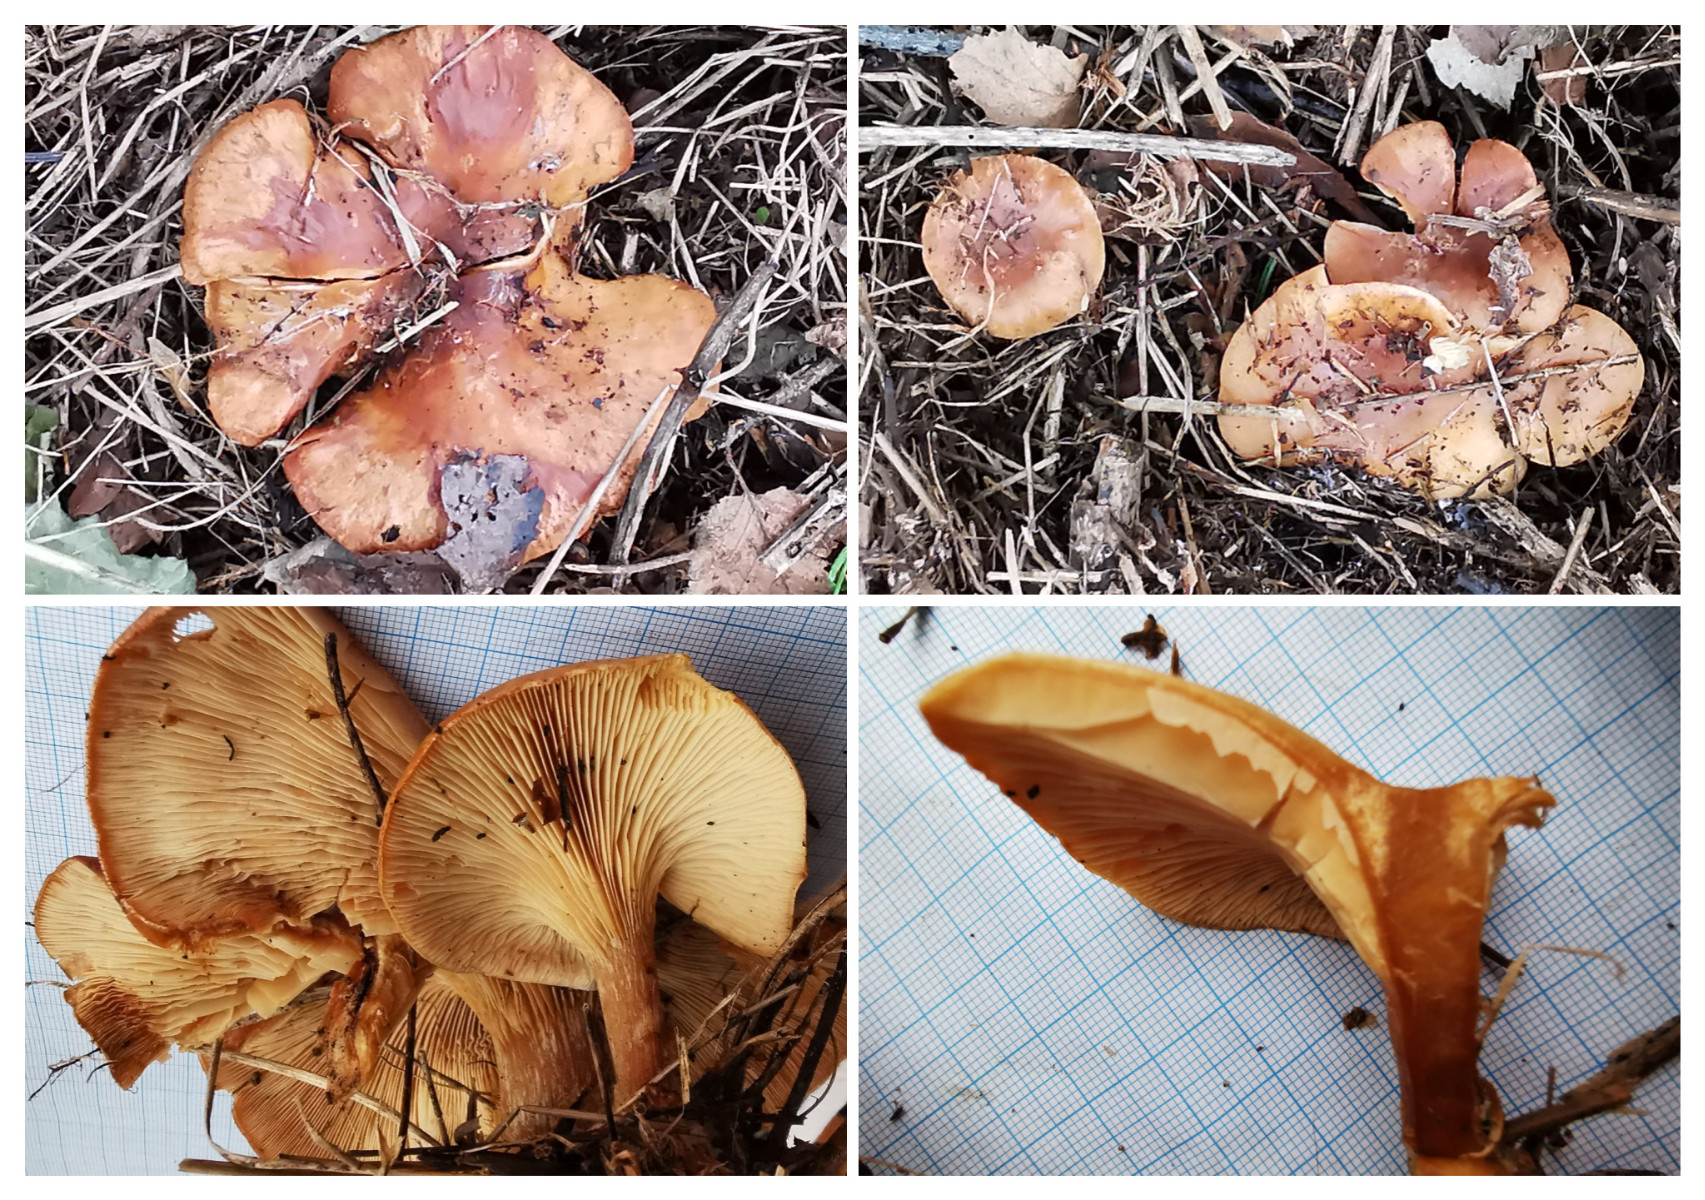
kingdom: Fungi
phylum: Basidiomycota
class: Agaricomycetes
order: Agaricales
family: Tricholomataceae
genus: Paralepista
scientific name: Paralepista flaccida
